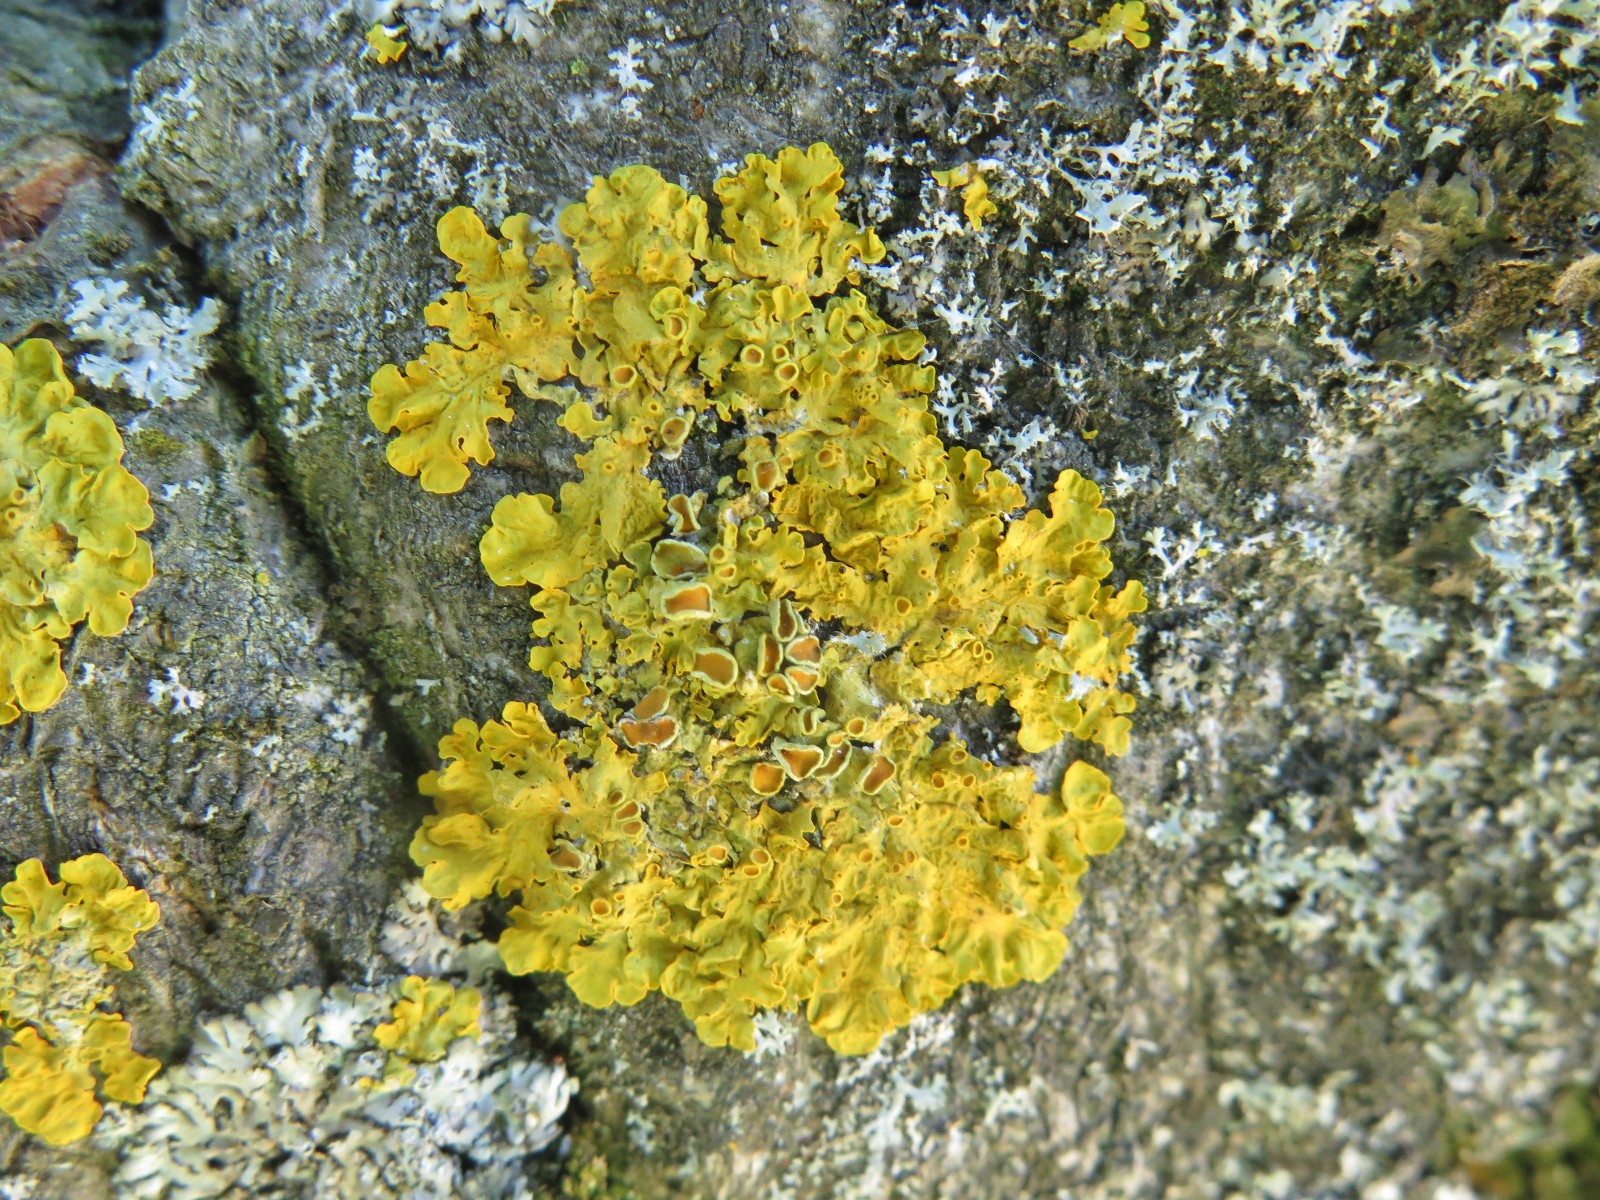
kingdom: Fungi
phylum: Ascomycota
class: Lecanoromycetes
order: Teloschistales
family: Teloschistaceae
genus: Xanthoria
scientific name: Xanthoria parietina
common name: almindelig væggelav
